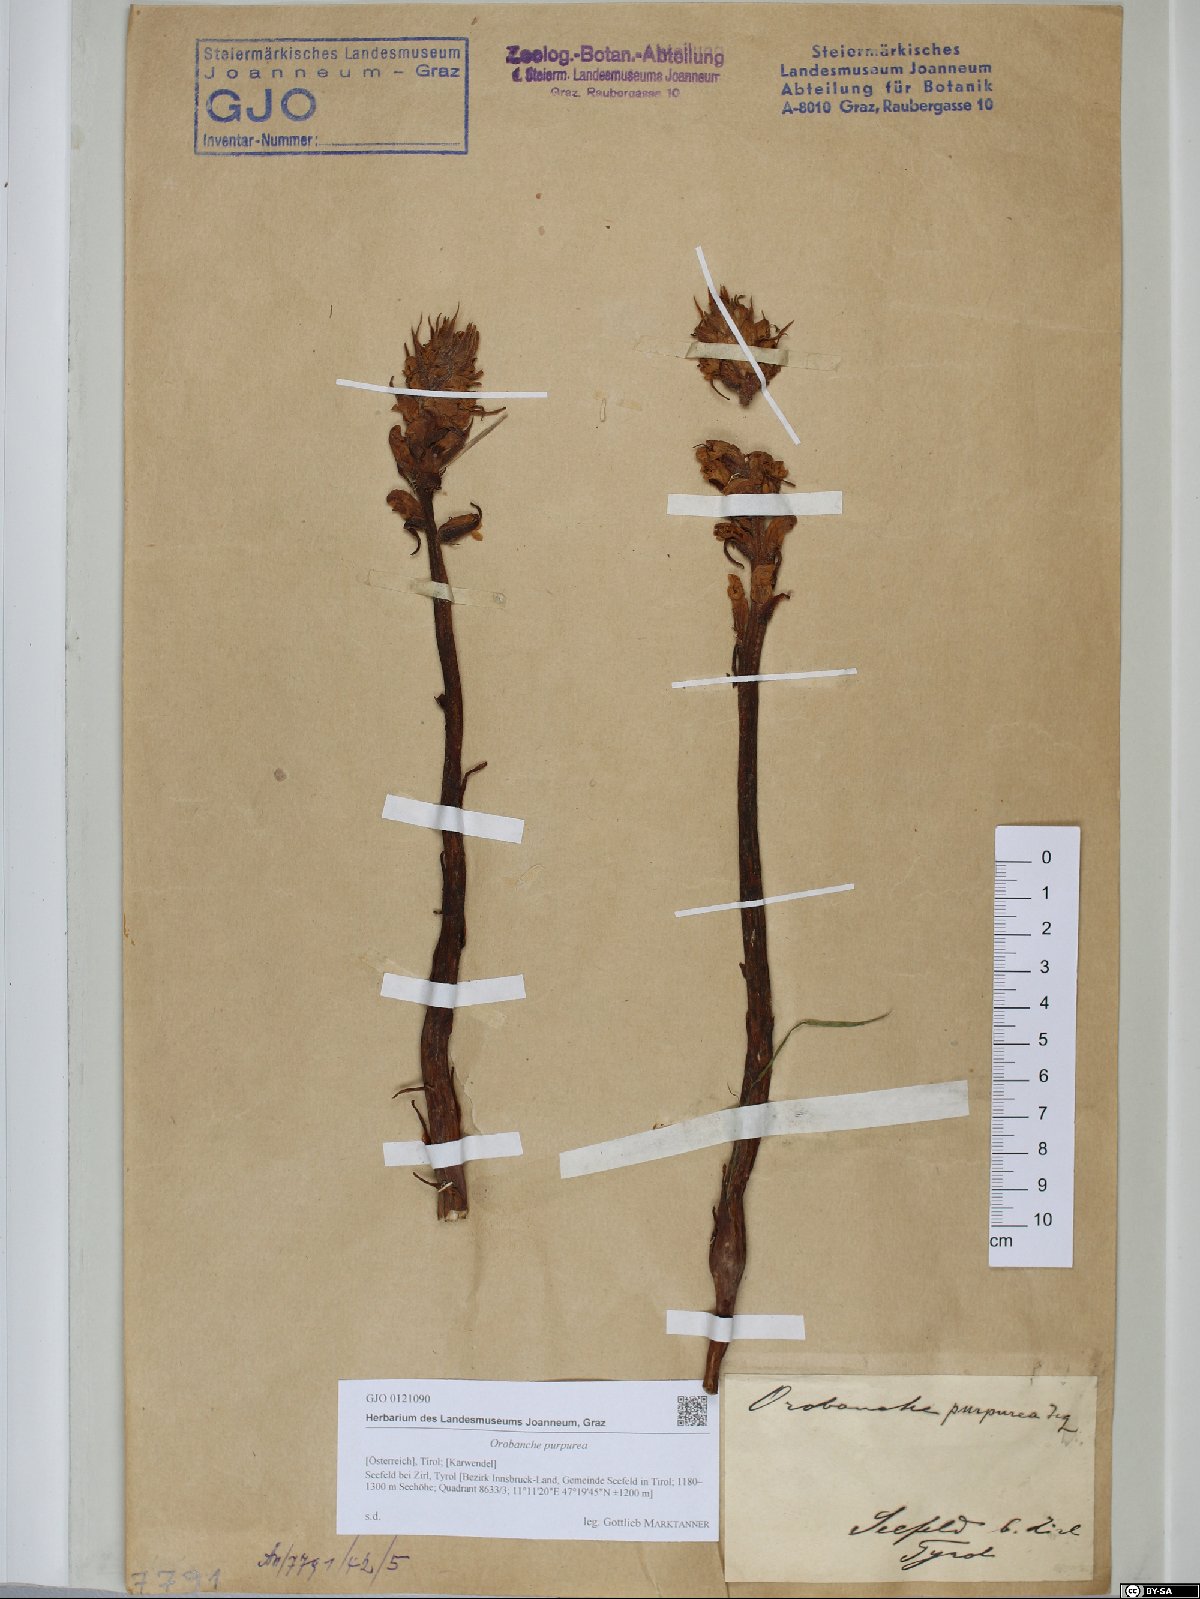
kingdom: Plantae
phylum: Tracheophyta
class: Magnoliopsida
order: Lamiales
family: Orobanchaceae
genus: Phelipanche
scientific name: Phelipanche purpurea
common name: Purple broomrape
